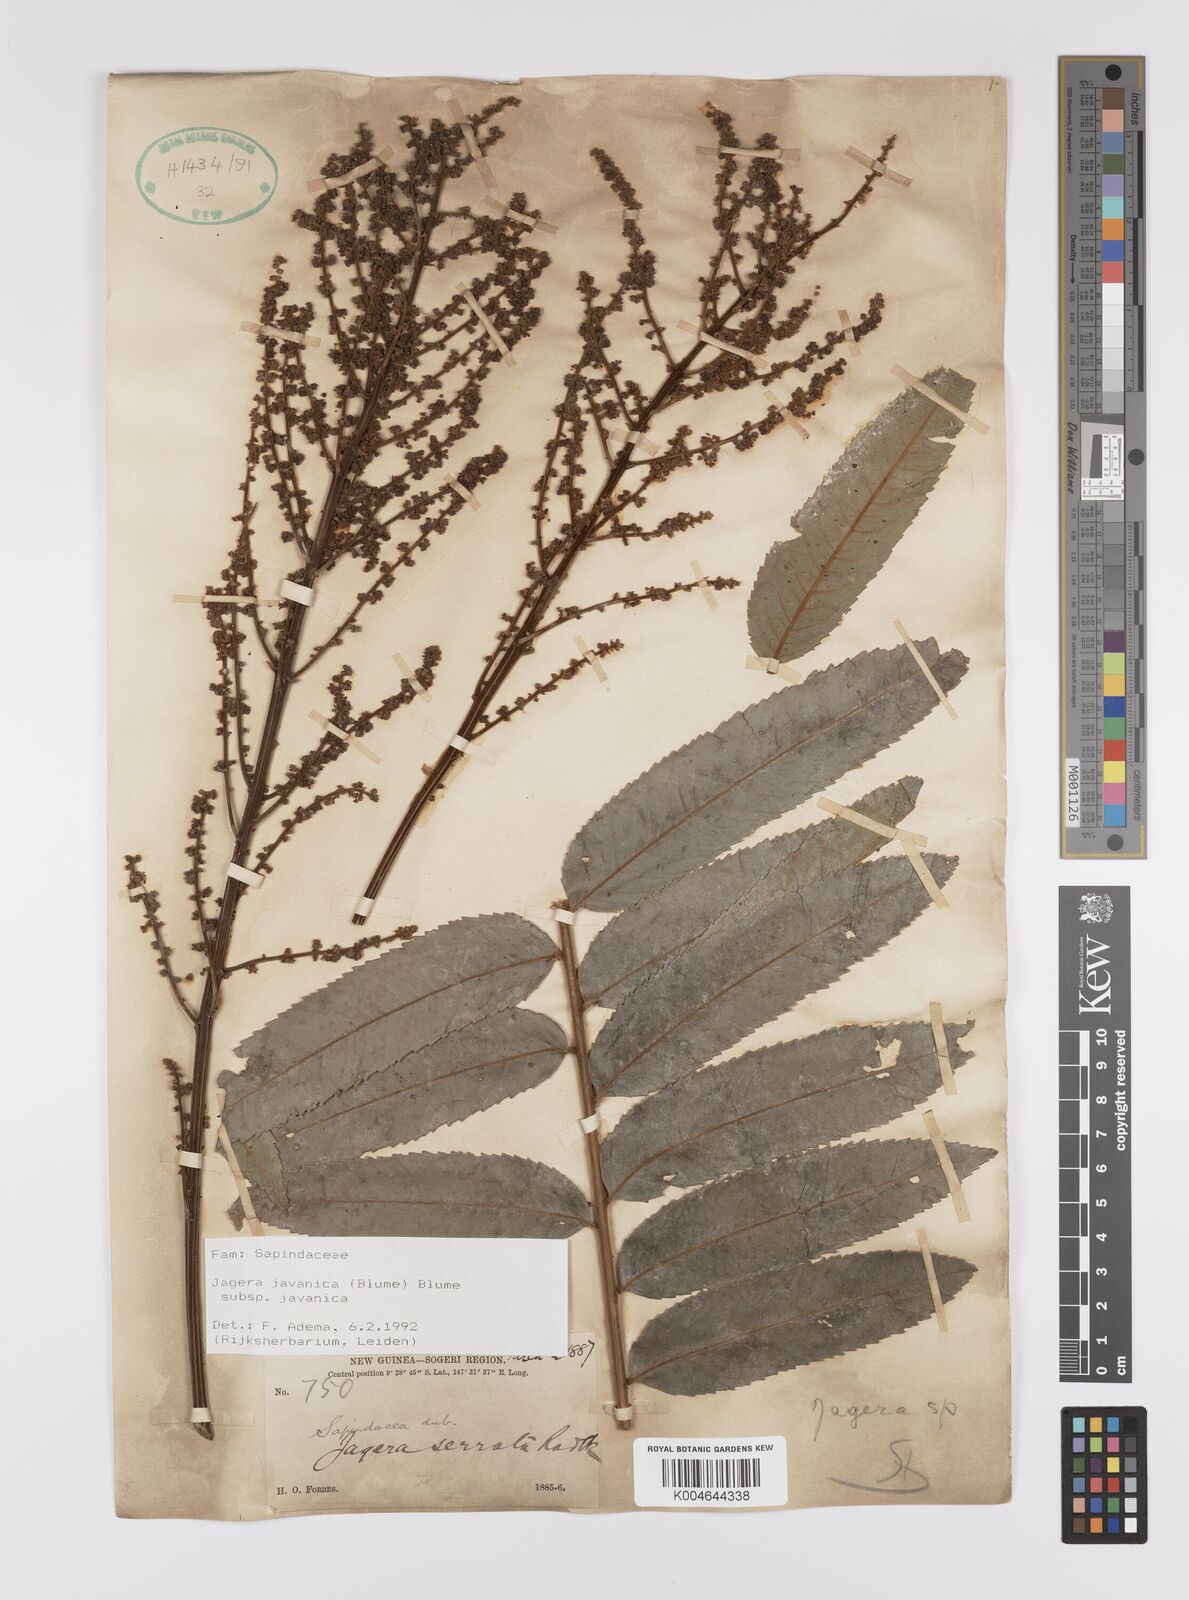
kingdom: Plantae
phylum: Tracheophyta
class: Magnoliopsida
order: Sapindales
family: Sapindaceae
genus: Jagera
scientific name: Jagera javanica
